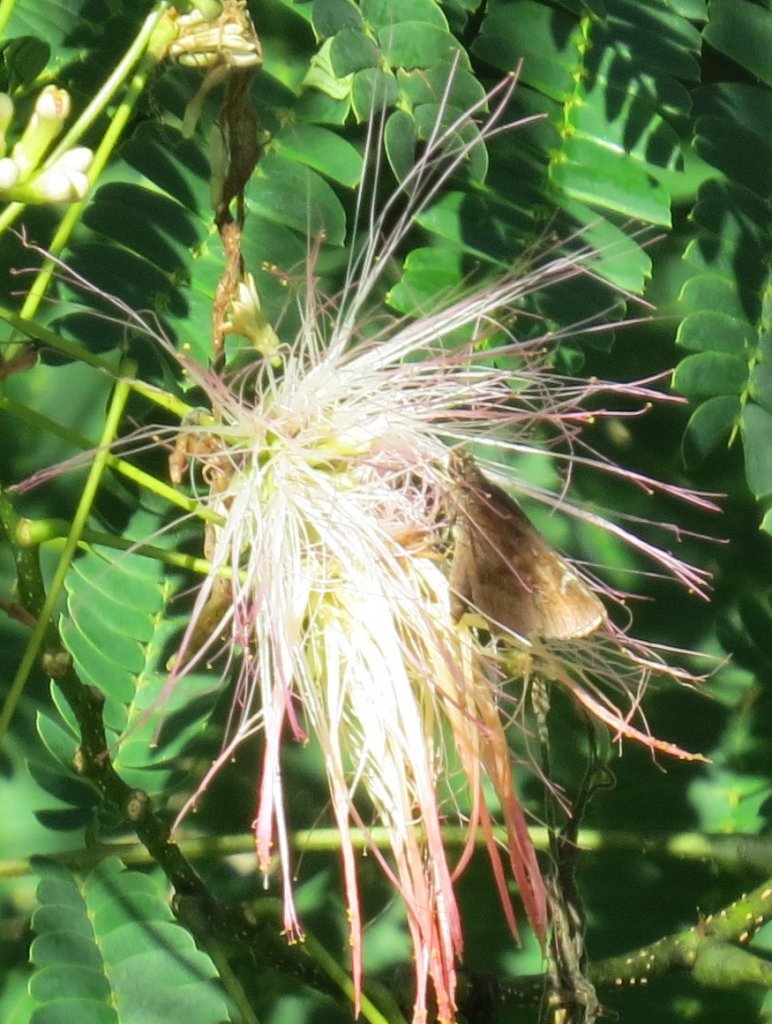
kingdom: Animalia
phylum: Arthropoda
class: Insecta
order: Lepidoptera
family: Hesperiidae
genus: Lerema
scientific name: Lerema accius
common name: Clouded Skipper
